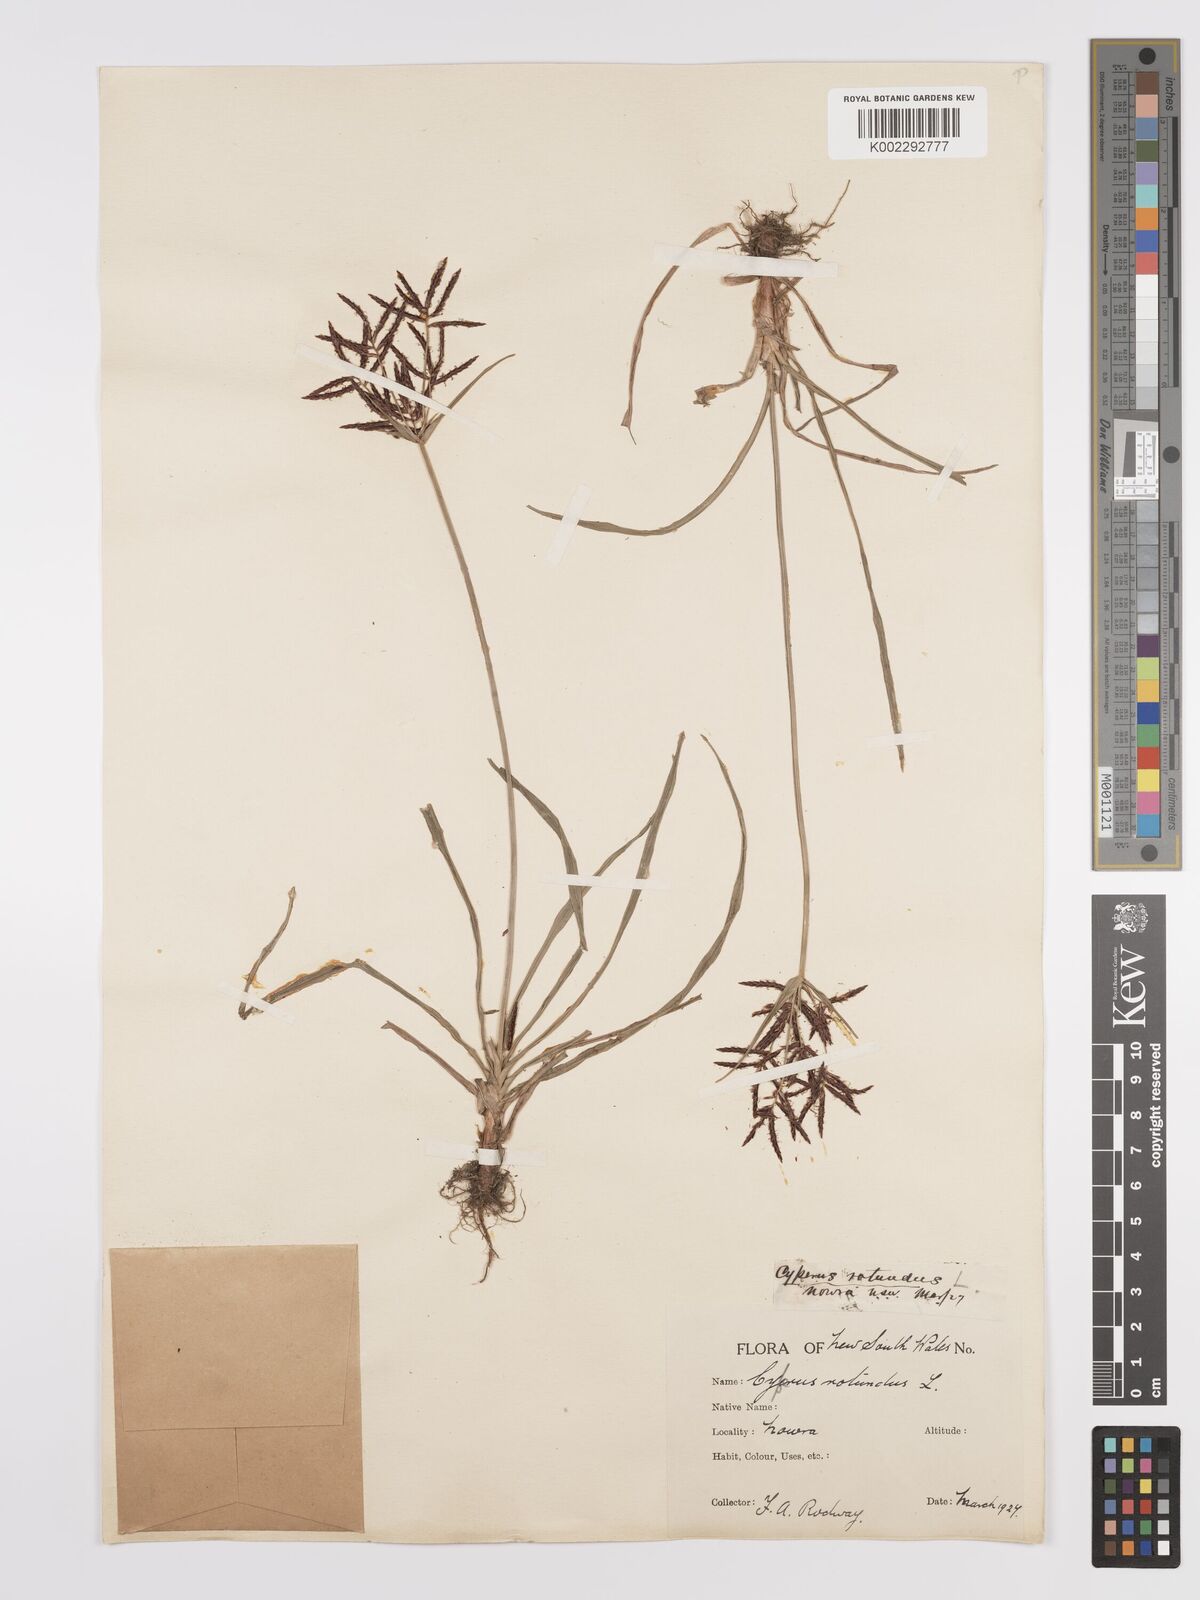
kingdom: Plantae
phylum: Tracheophyta
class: Liliopsida
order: Poales
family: Cyperaceae
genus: Cyperus
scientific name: Cyperus rotundus
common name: Nutgrass
